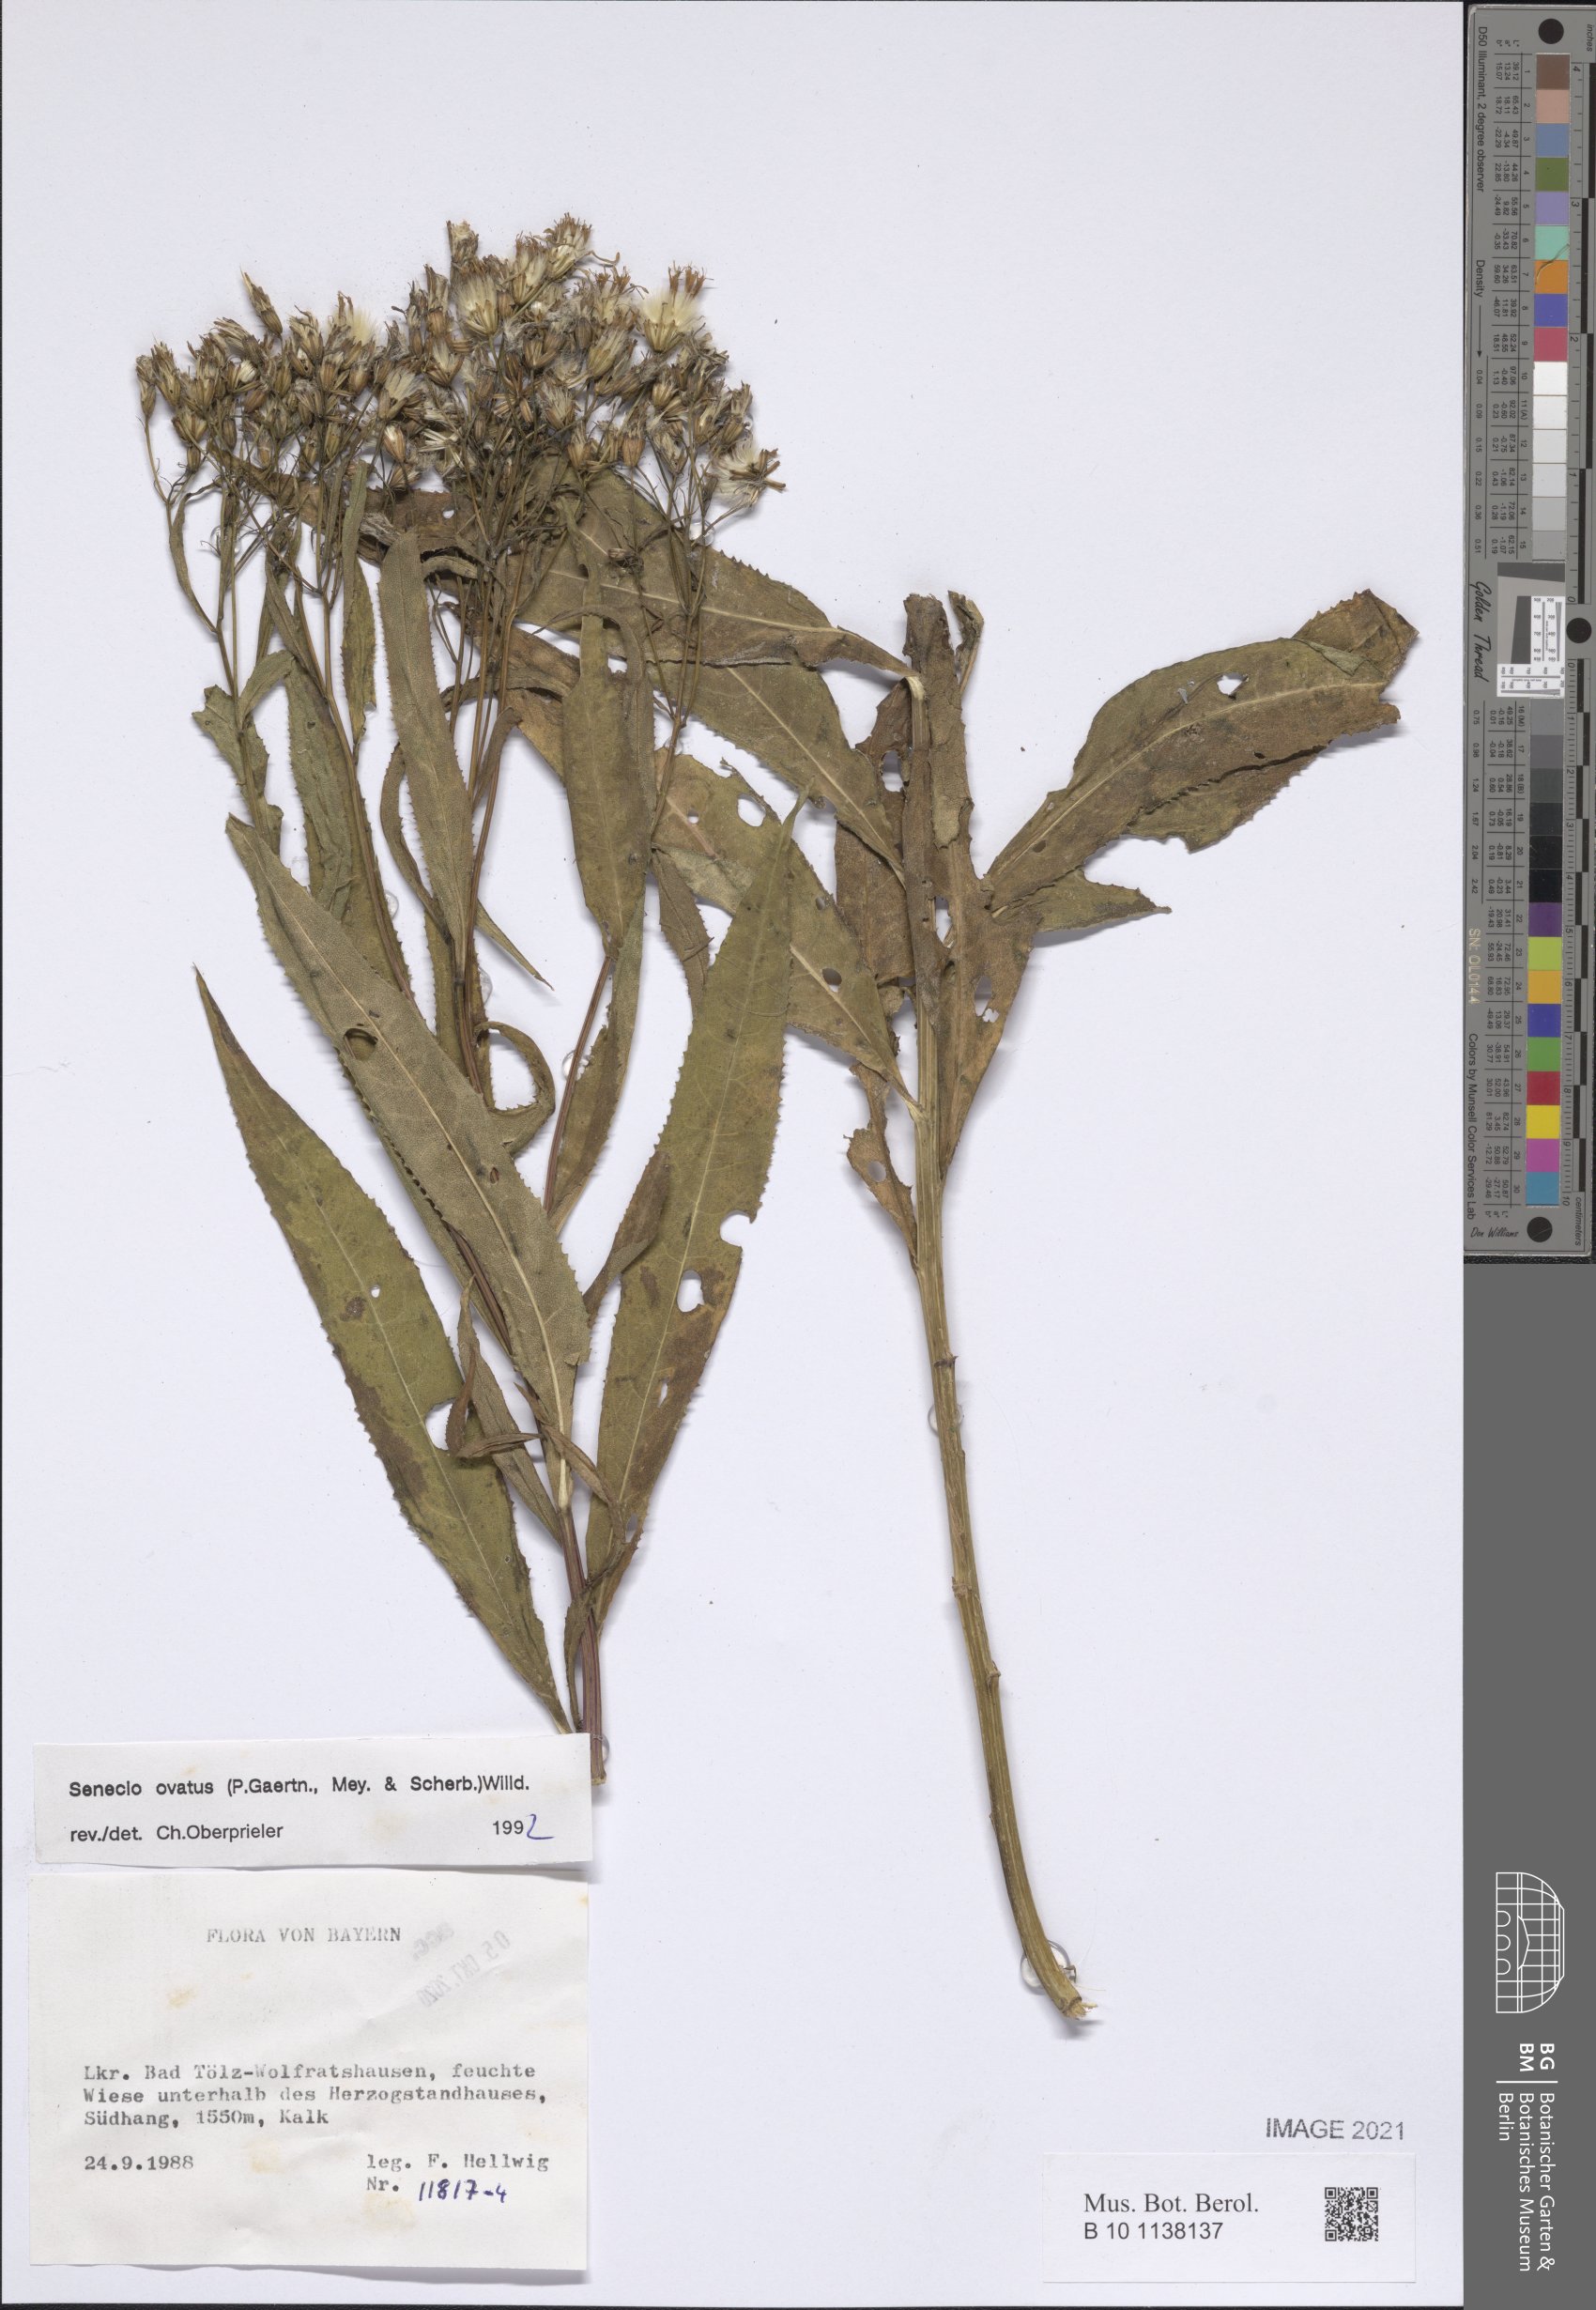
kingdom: Plantae
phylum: Tracheophyta
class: Magnoliopsida
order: Asterales
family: Asteraceae
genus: Senecio
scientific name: Senecio ovatus
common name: Wood ragwort
